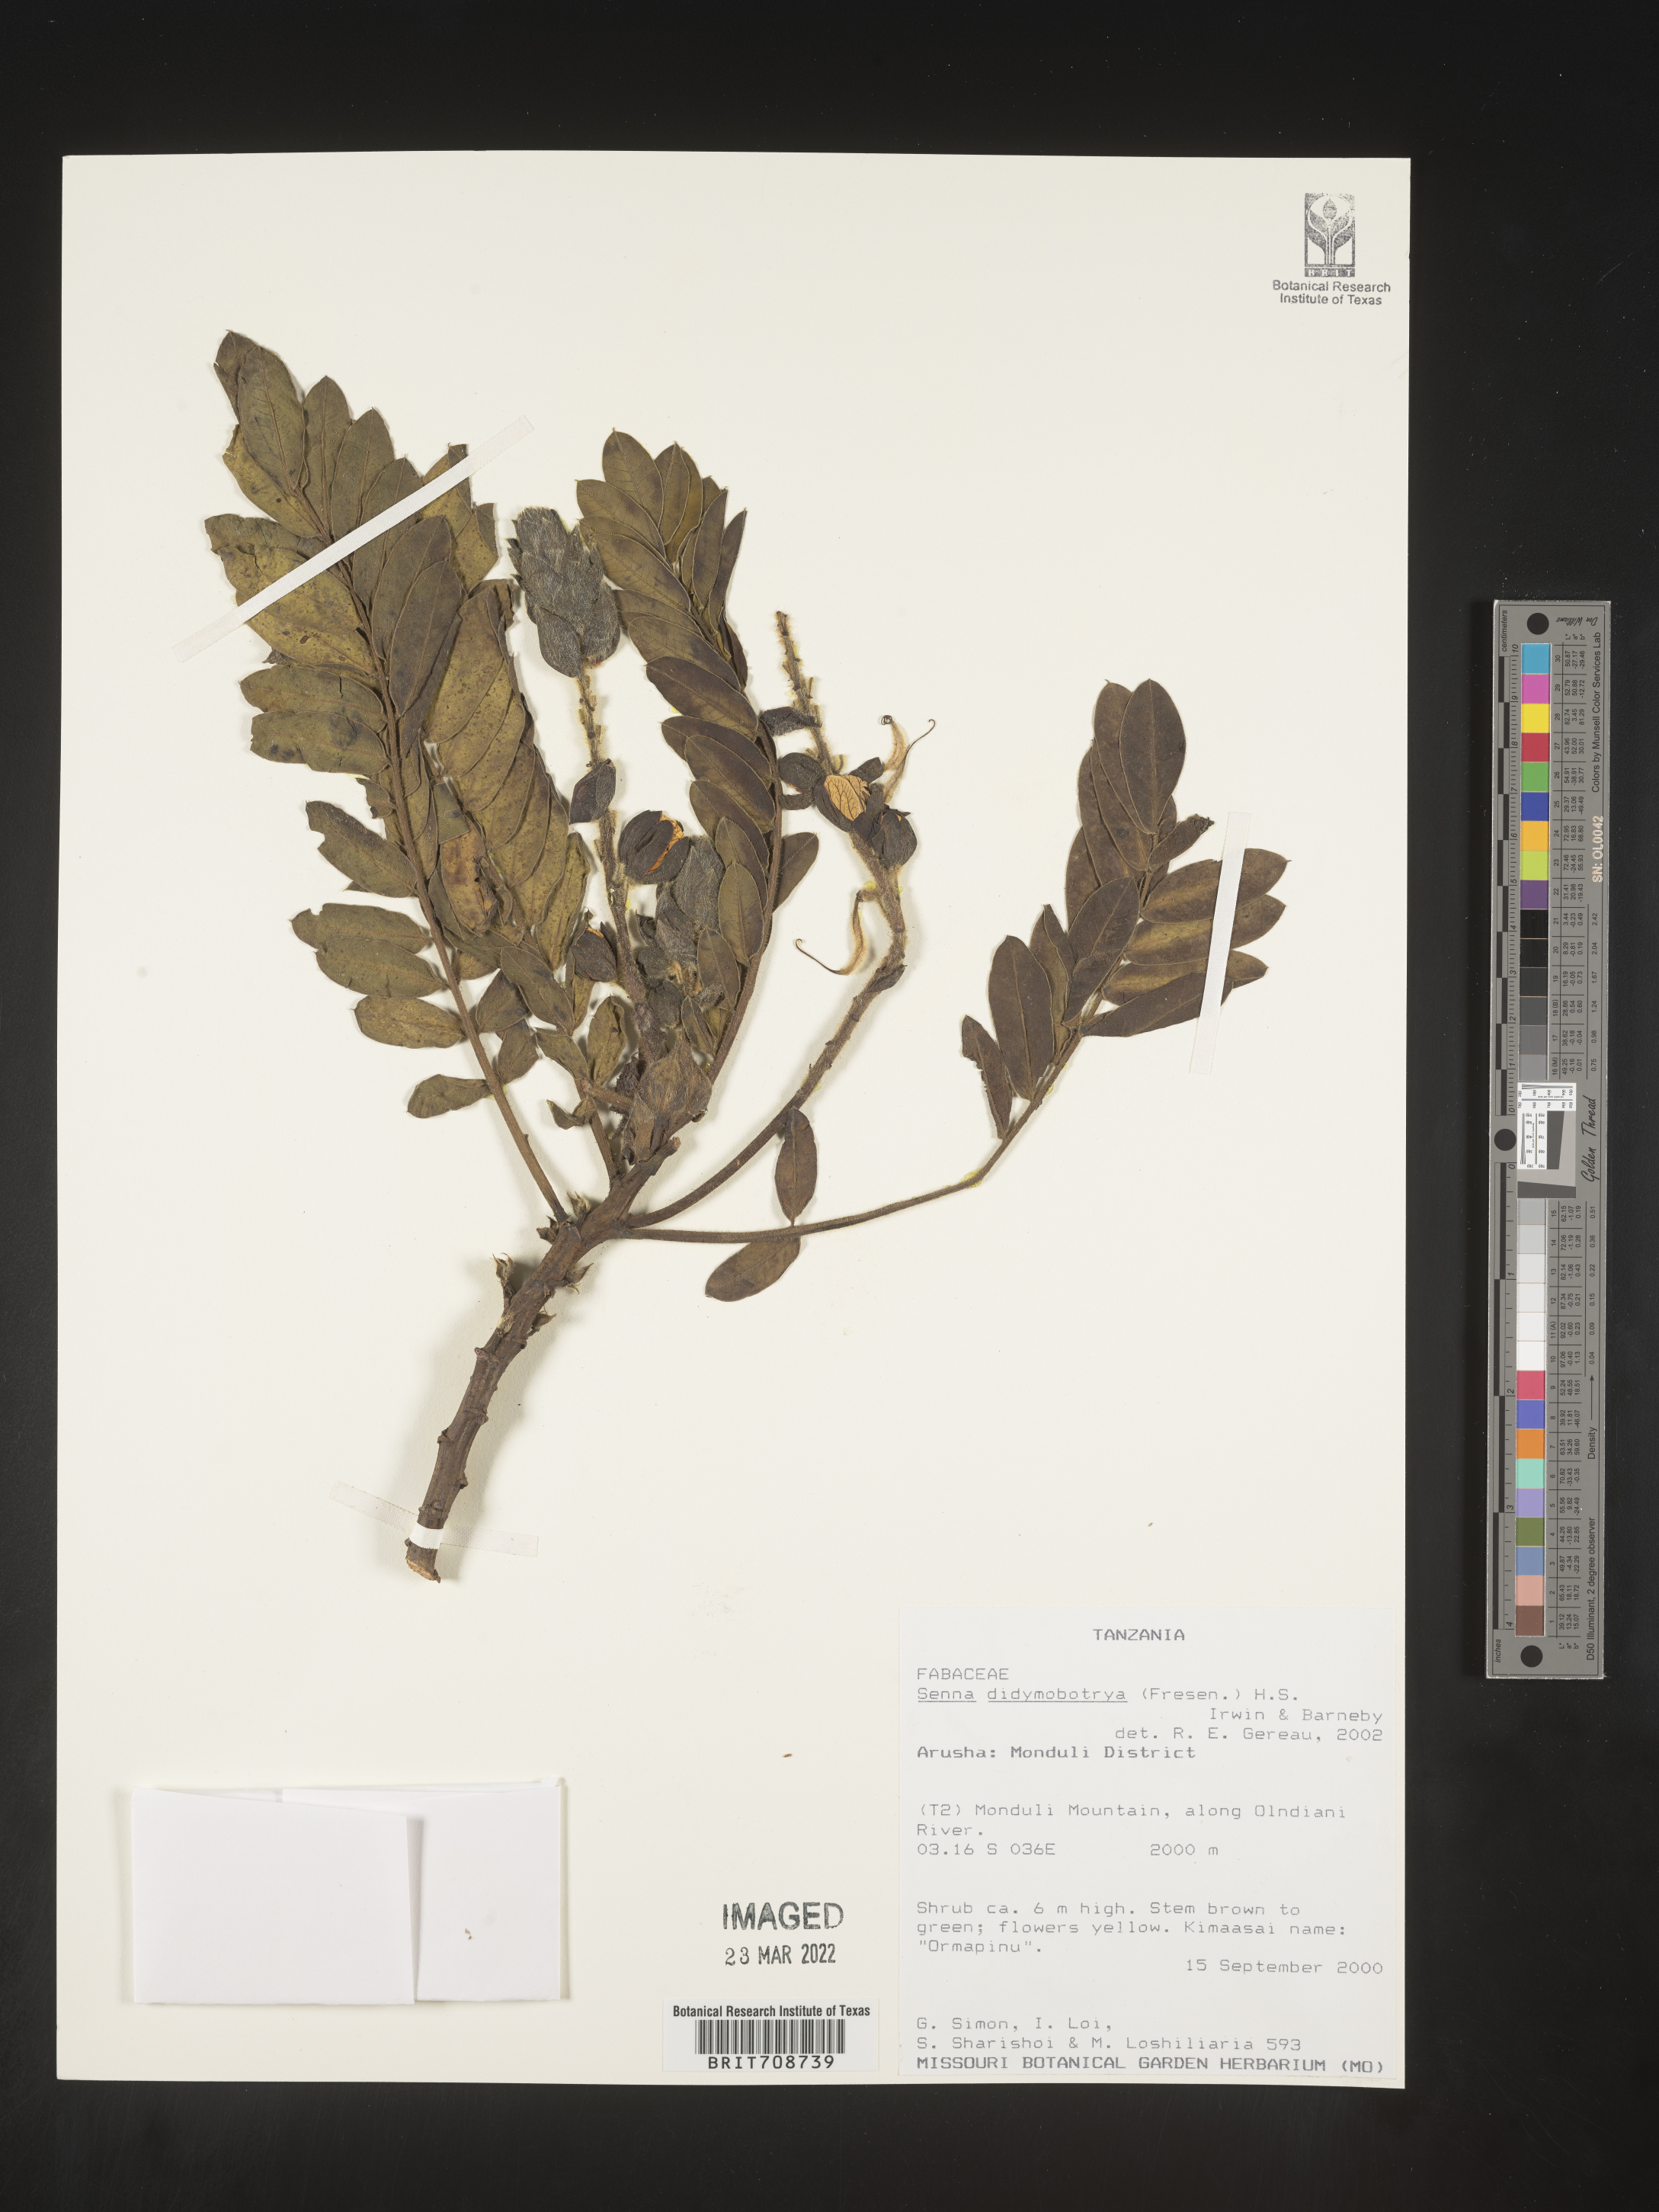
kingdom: Plantae
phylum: Tracheophyta
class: Magnoliopsida
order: Fabales
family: Fabaceae
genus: Senna
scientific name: Senna
